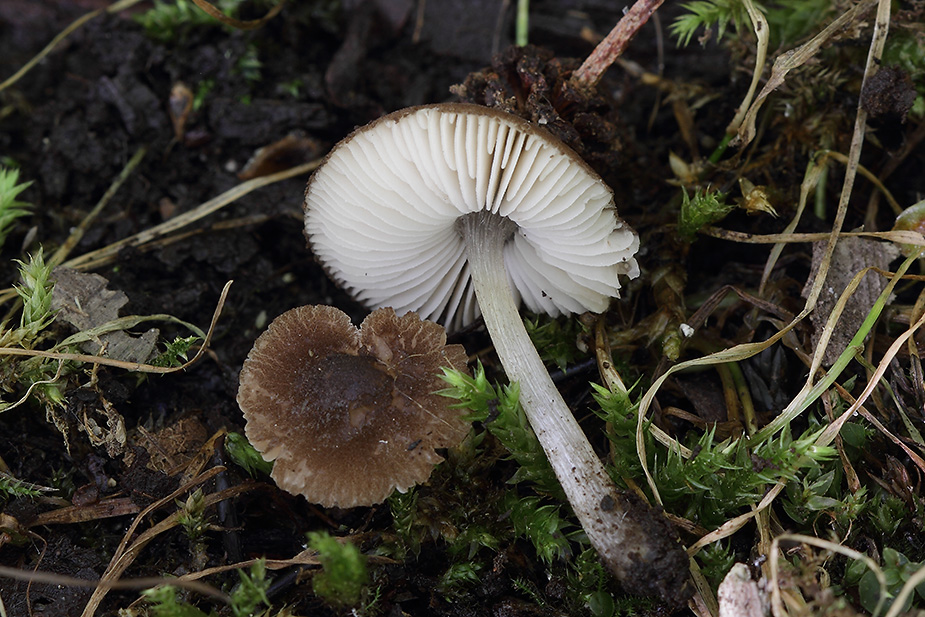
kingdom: Fungi
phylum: Basidiomycota
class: Agaricomycetes
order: Agaricales
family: Pluteaceae
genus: Pluteus
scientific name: Pluteus podospileus
